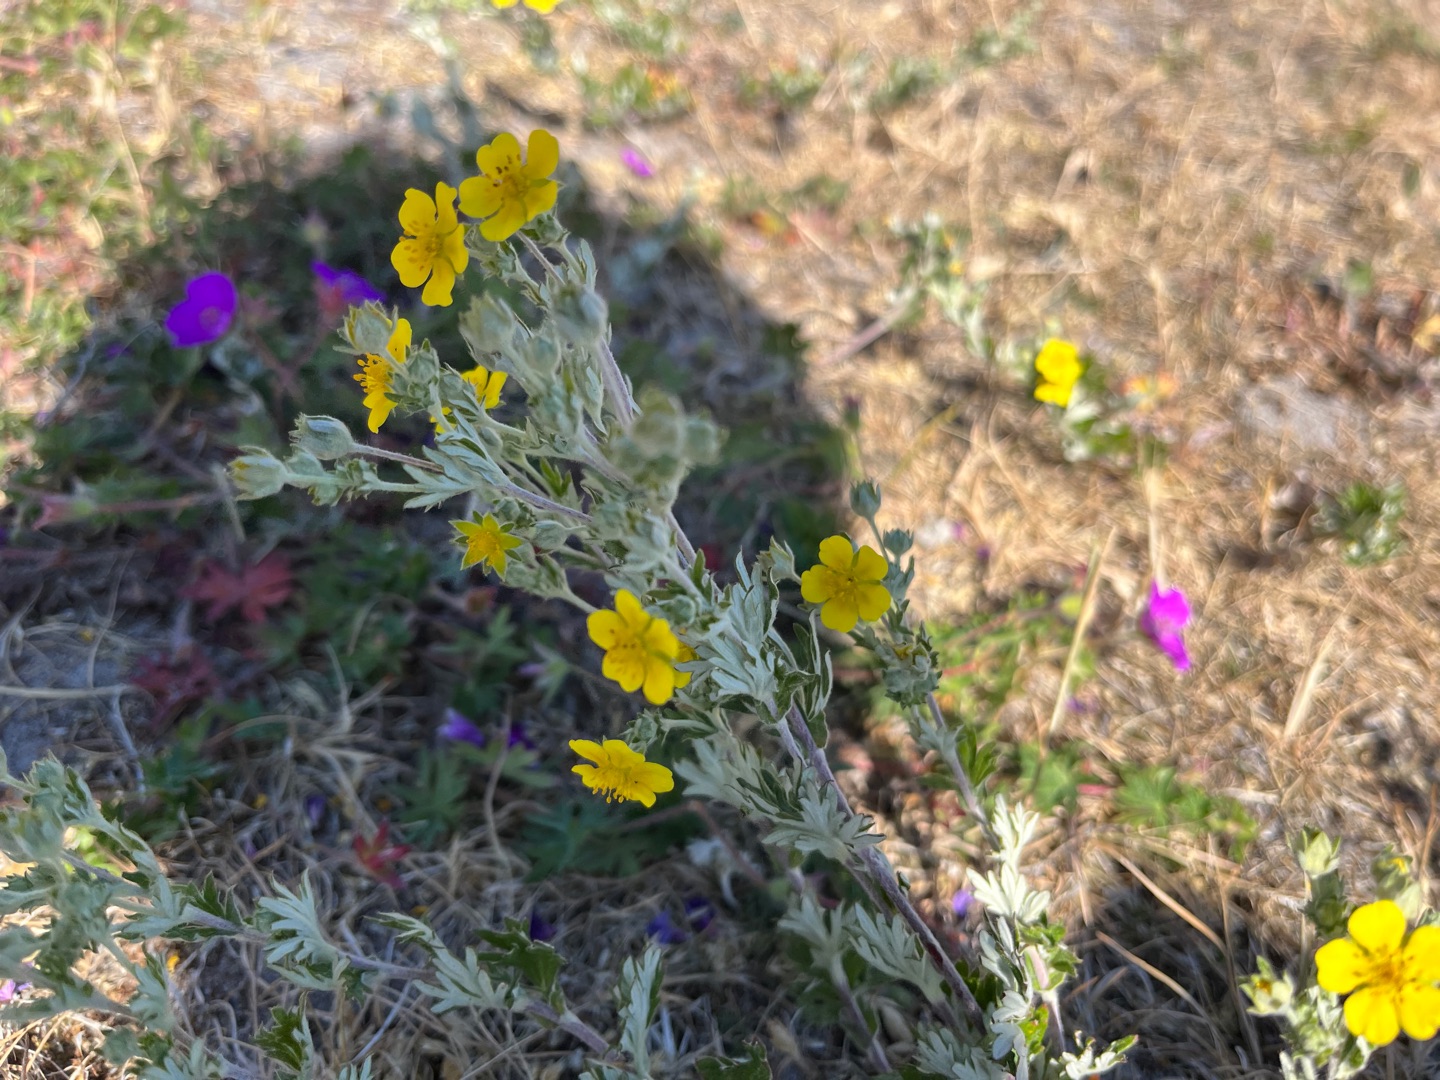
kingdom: Plantae
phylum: Tracheophyta
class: Magnoliopsida
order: Rosales
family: Rosaceae
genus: Potentilla
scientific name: Potentilla argentea
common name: Sølv-potentil
